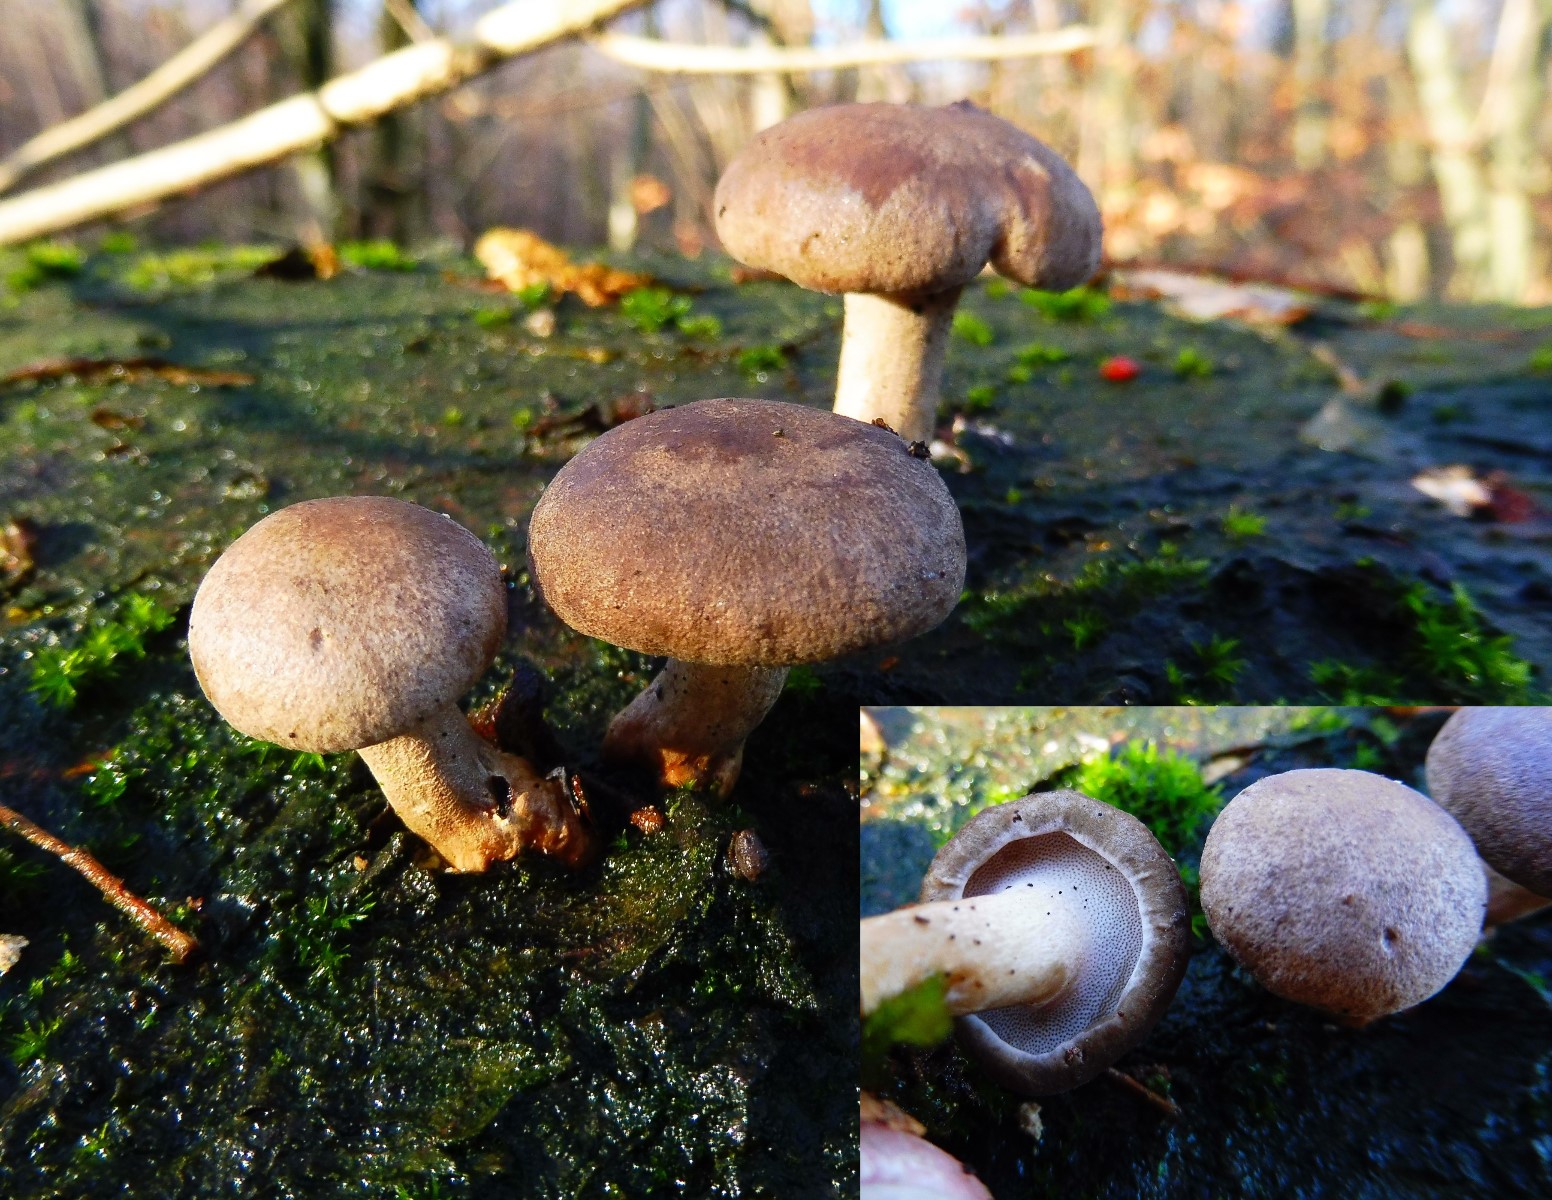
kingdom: Fungi
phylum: Basidiomycota
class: Agaricomycetes
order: Polyporales
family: Polyporaceae
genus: Lentinus
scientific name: Lentinus brumalis
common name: vinter-stilkporesvamp
